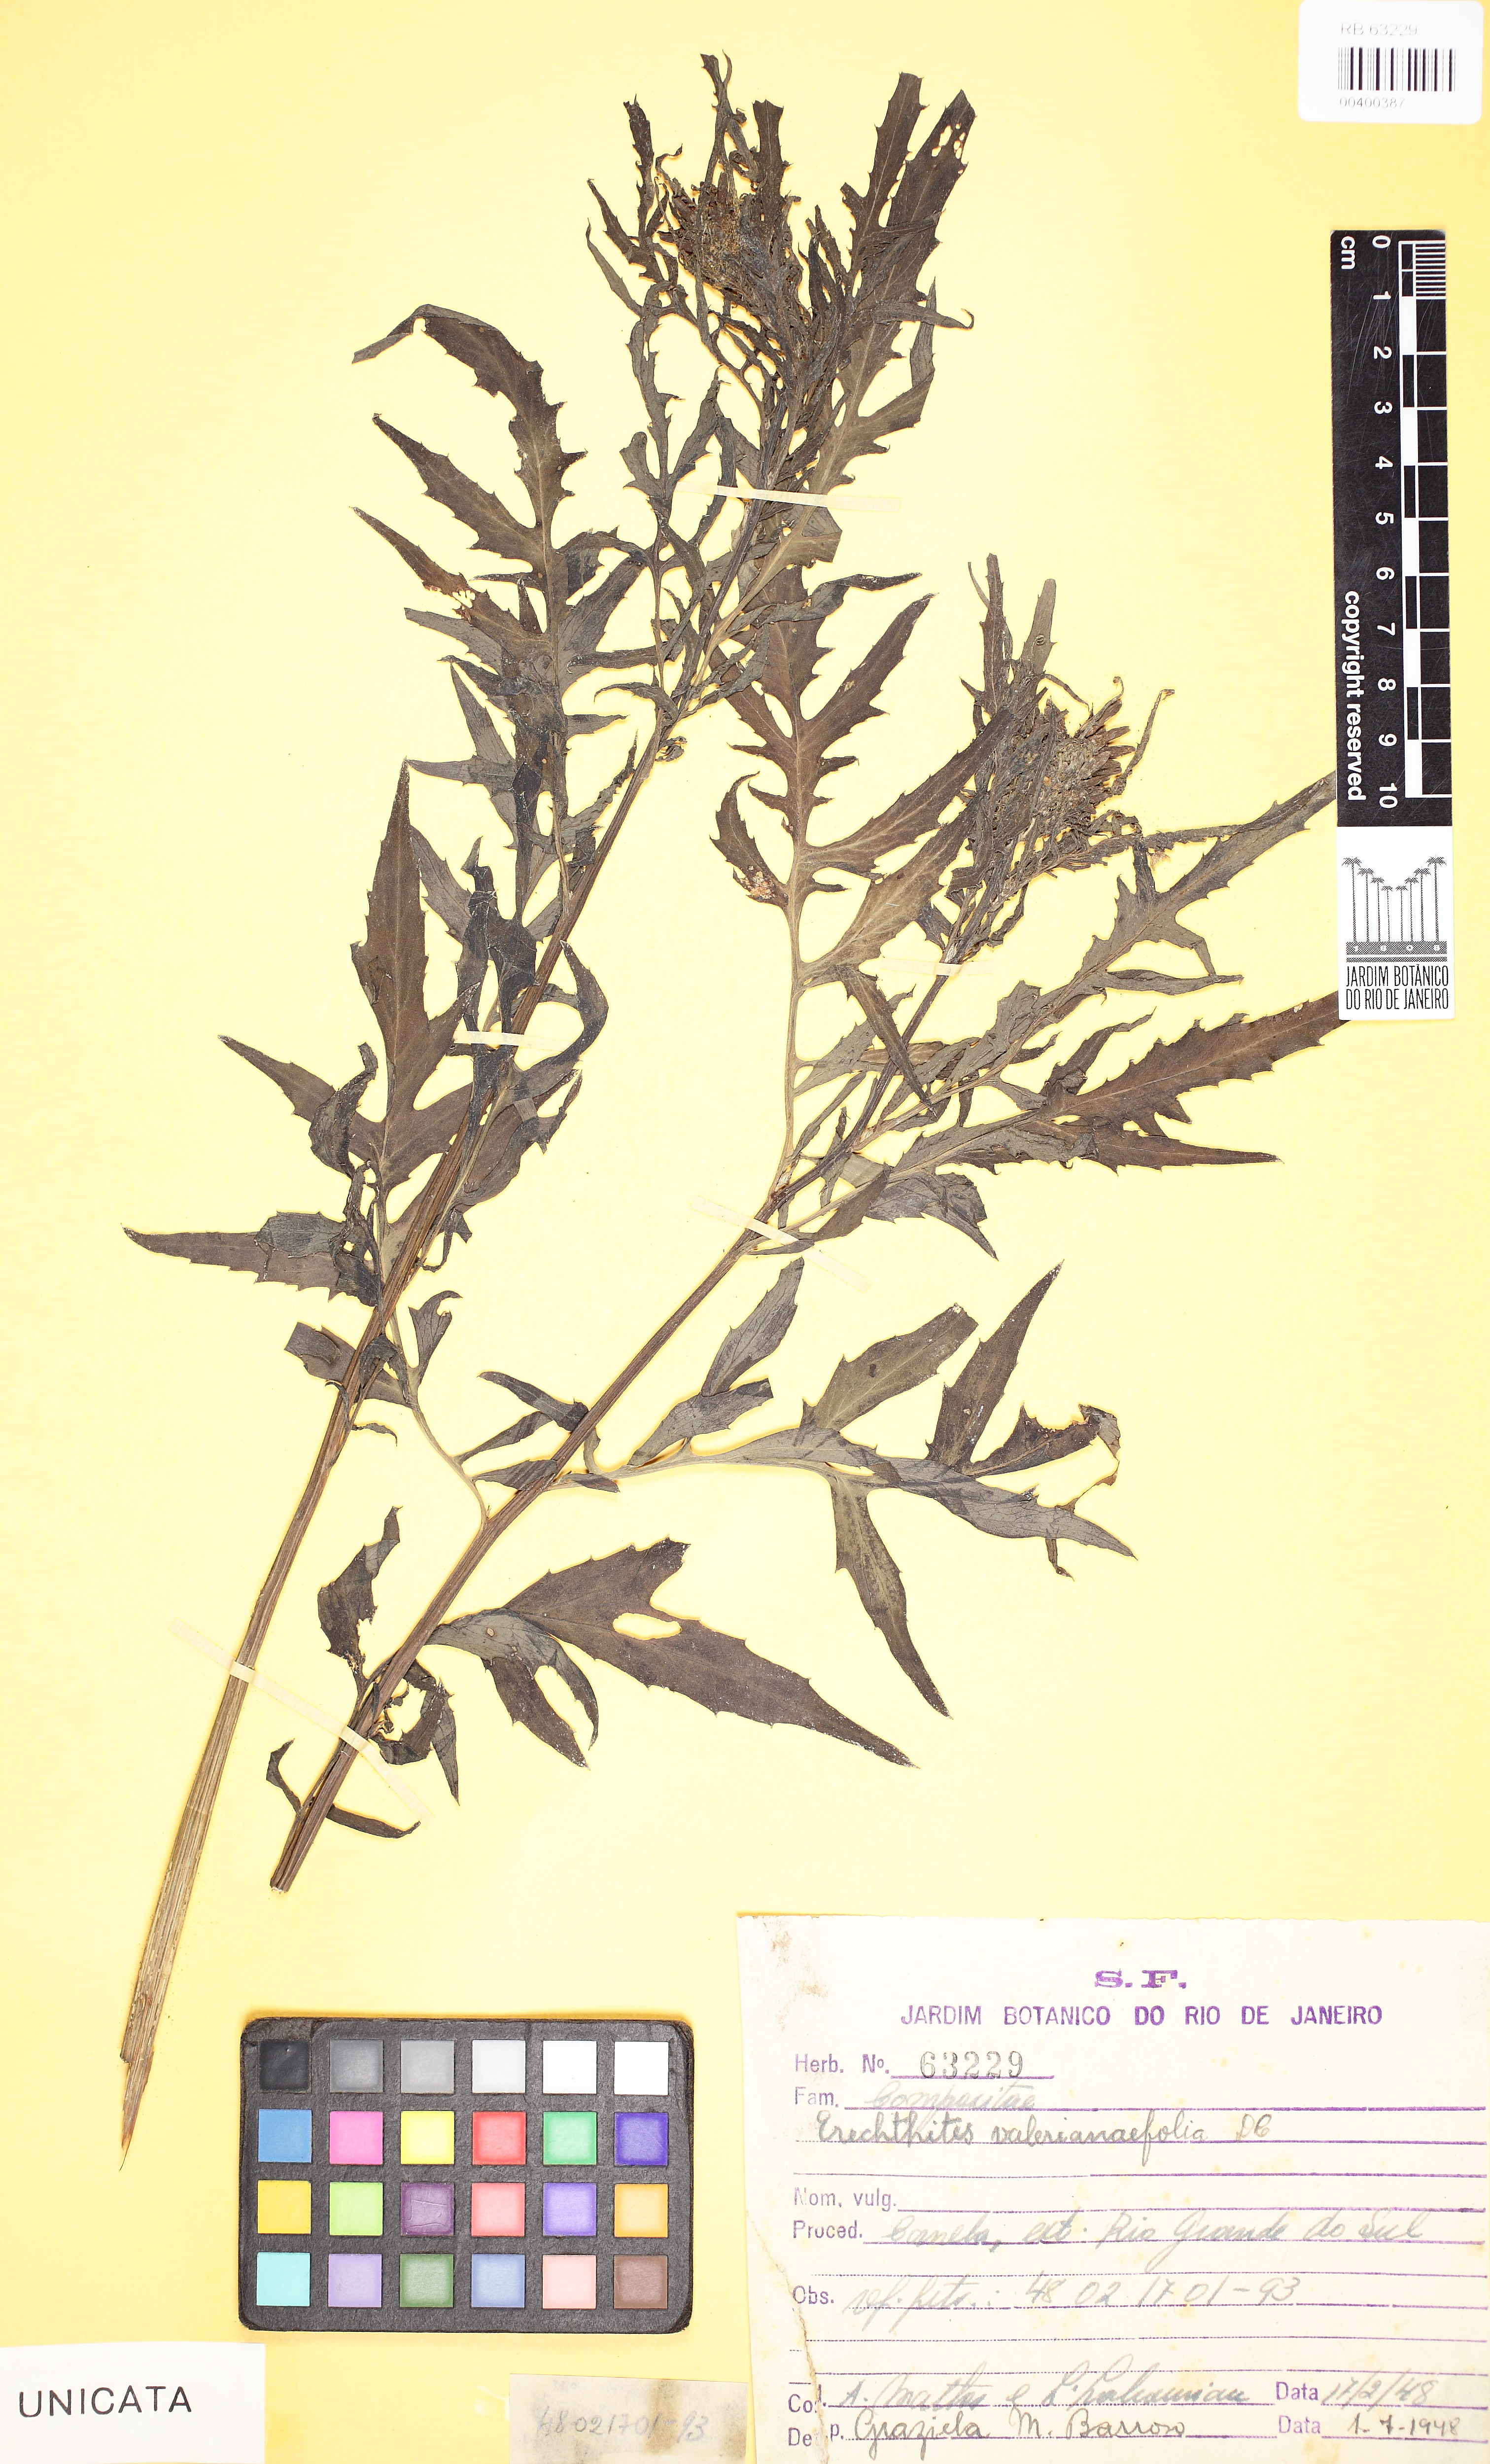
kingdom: Plantae
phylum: Tracheophyta
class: Magnoliopsida
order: Asterales
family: Asteraceae
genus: Erechtites
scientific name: Erechtites valerianifolius
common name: Tropical burnweed
